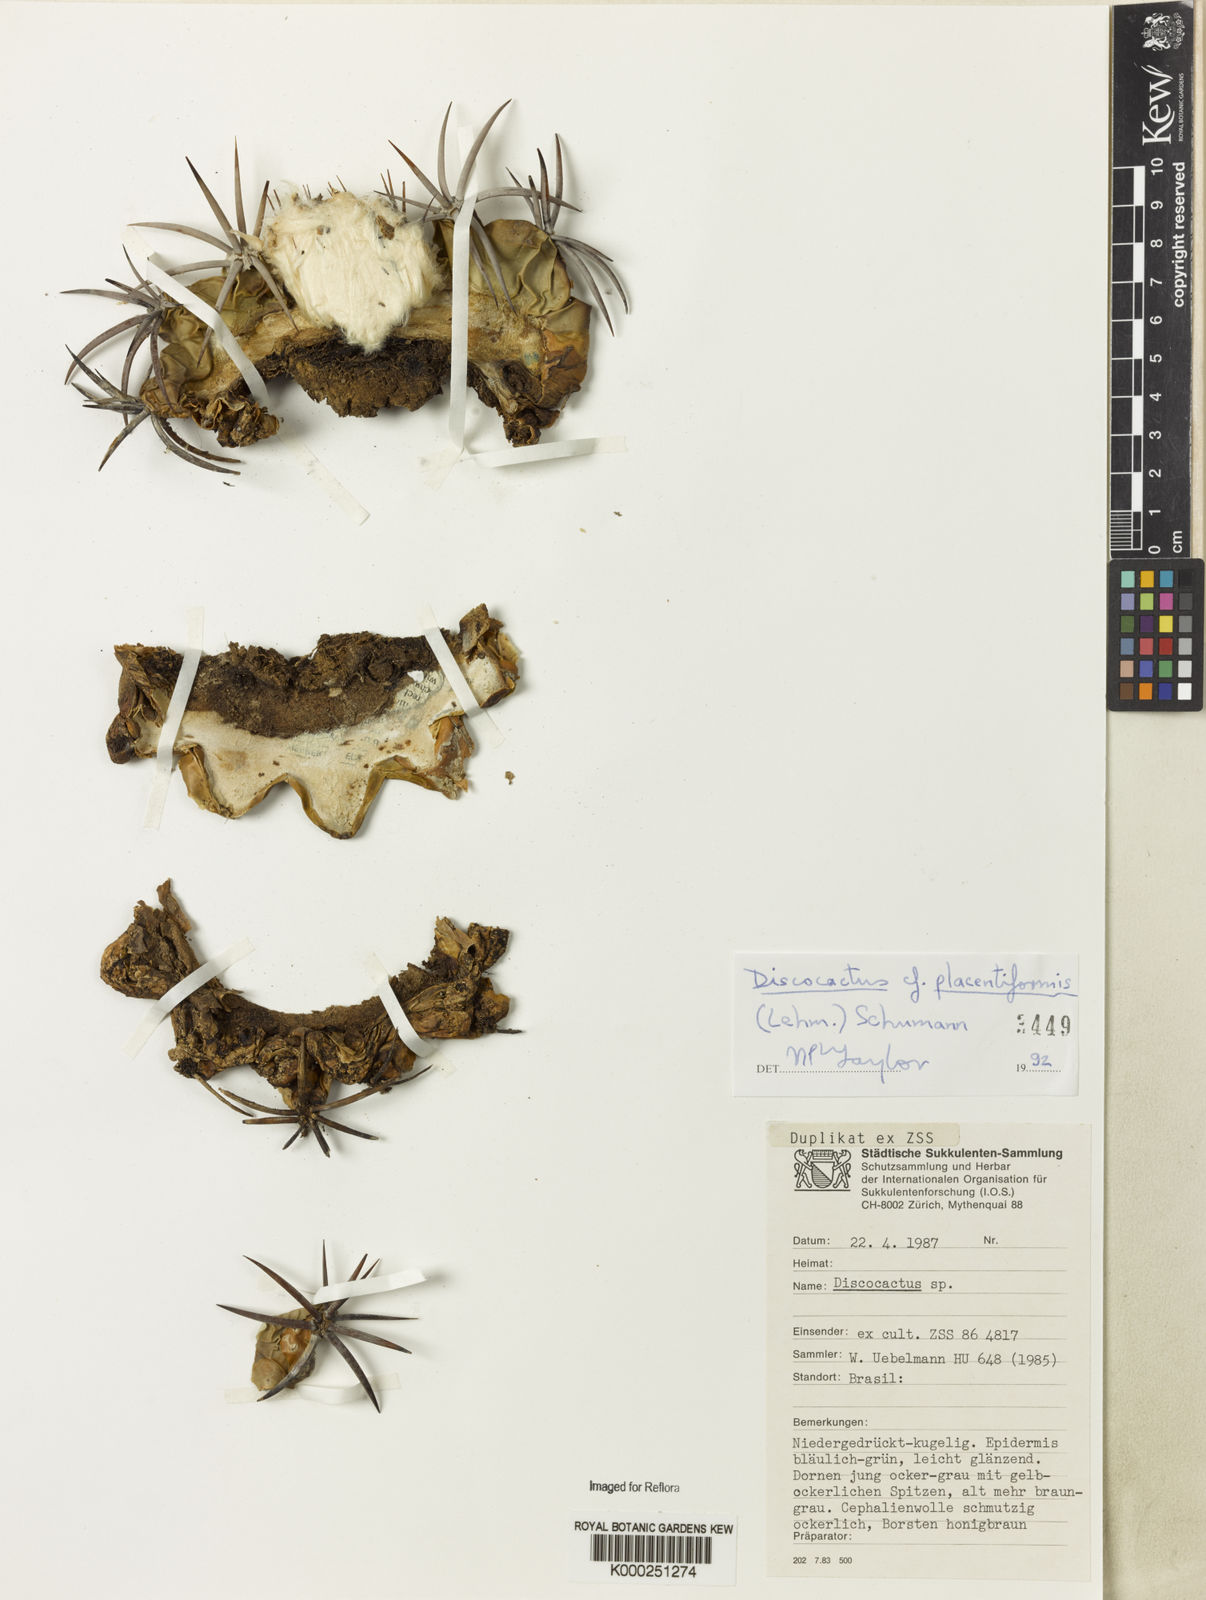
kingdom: Plantae
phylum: Tracheophyta
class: Magnoliopsida
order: Caryophyllales
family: Cactaceae
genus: Discocactus
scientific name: Discocactus placentiformis
